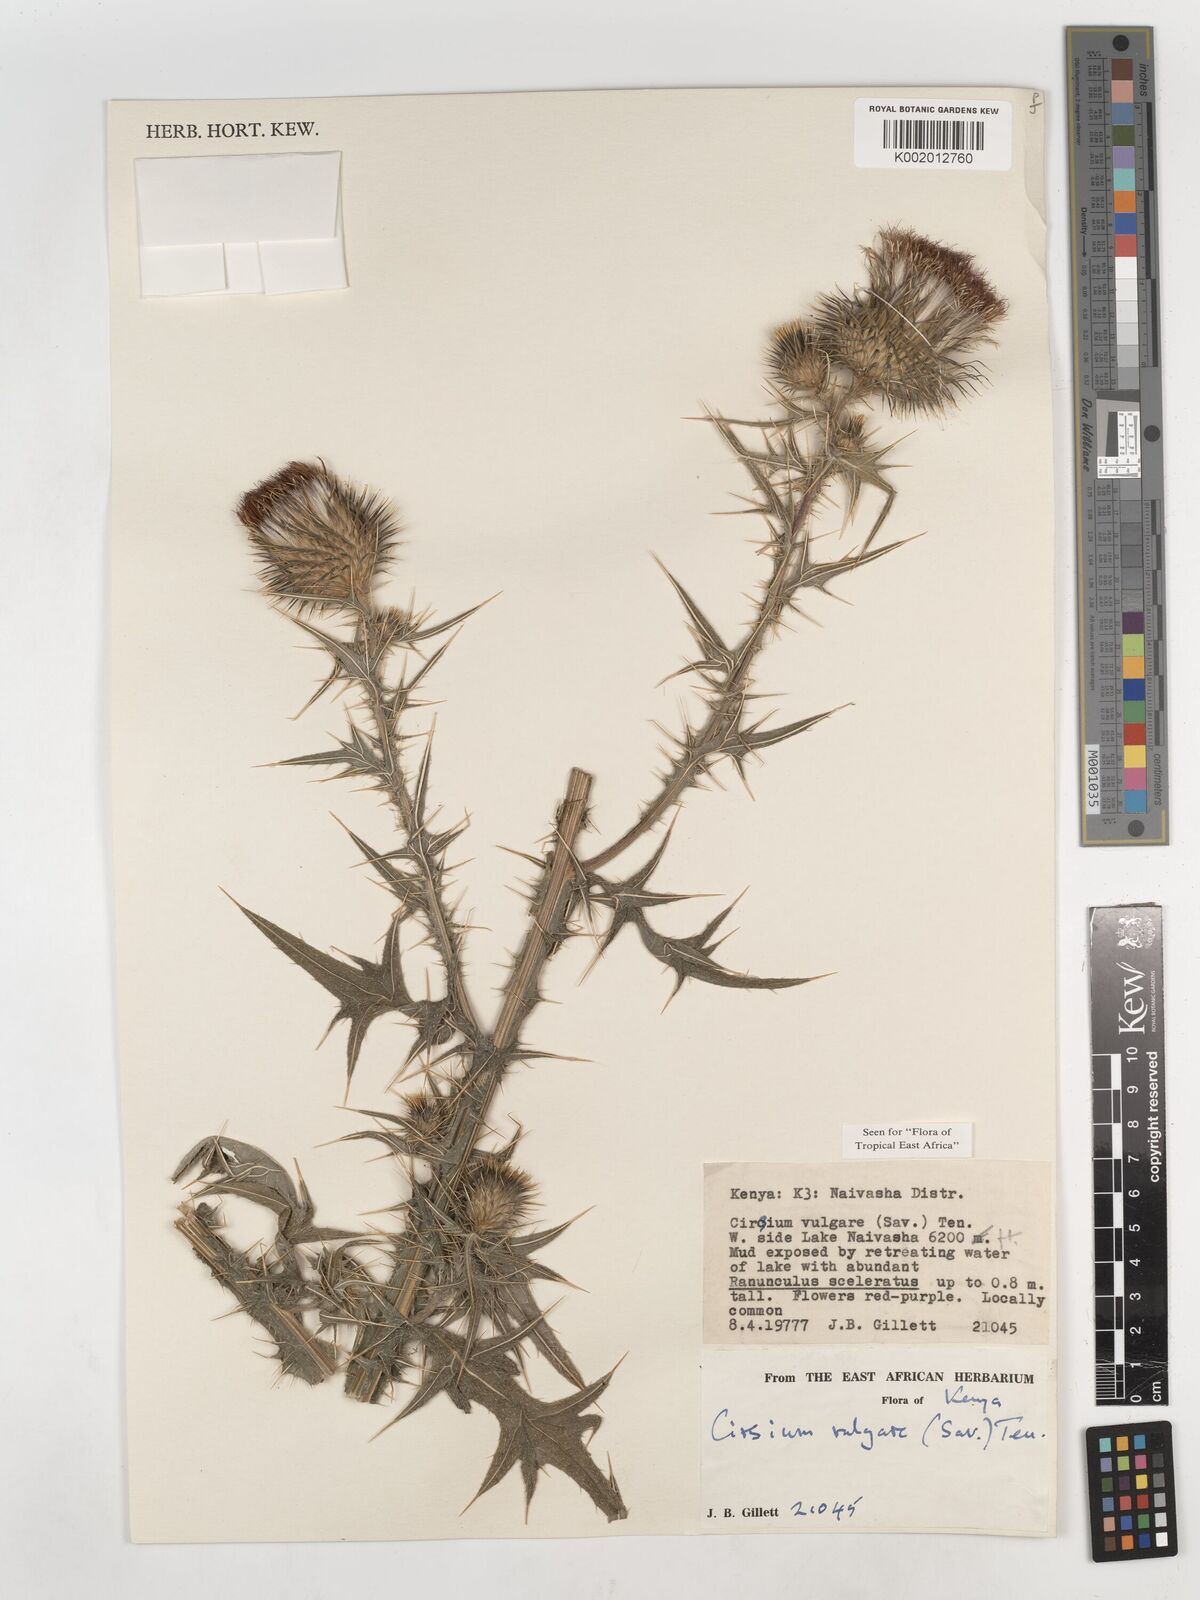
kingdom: Plantae
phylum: Tracheophyta
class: Magnoliopsida
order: Asterales
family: Asteraceae
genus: Cirsium
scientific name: Cirsium vulgare
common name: Bull thistle
